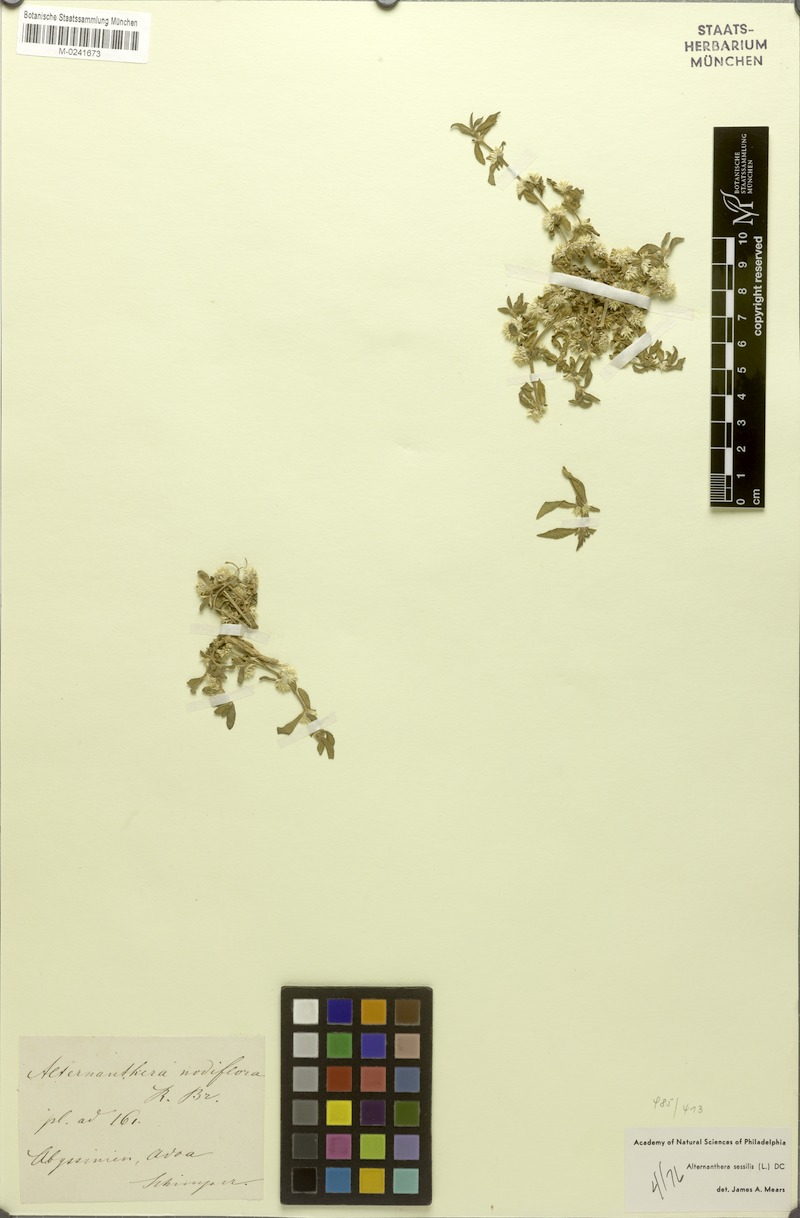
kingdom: Plantae
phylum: Tracheophyta
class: Magnoliopsida
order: Caryophyllales
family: Amaranthaceae
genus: Alternanthera
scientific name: Alternanthera sessilis
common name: Sessile joyweed
